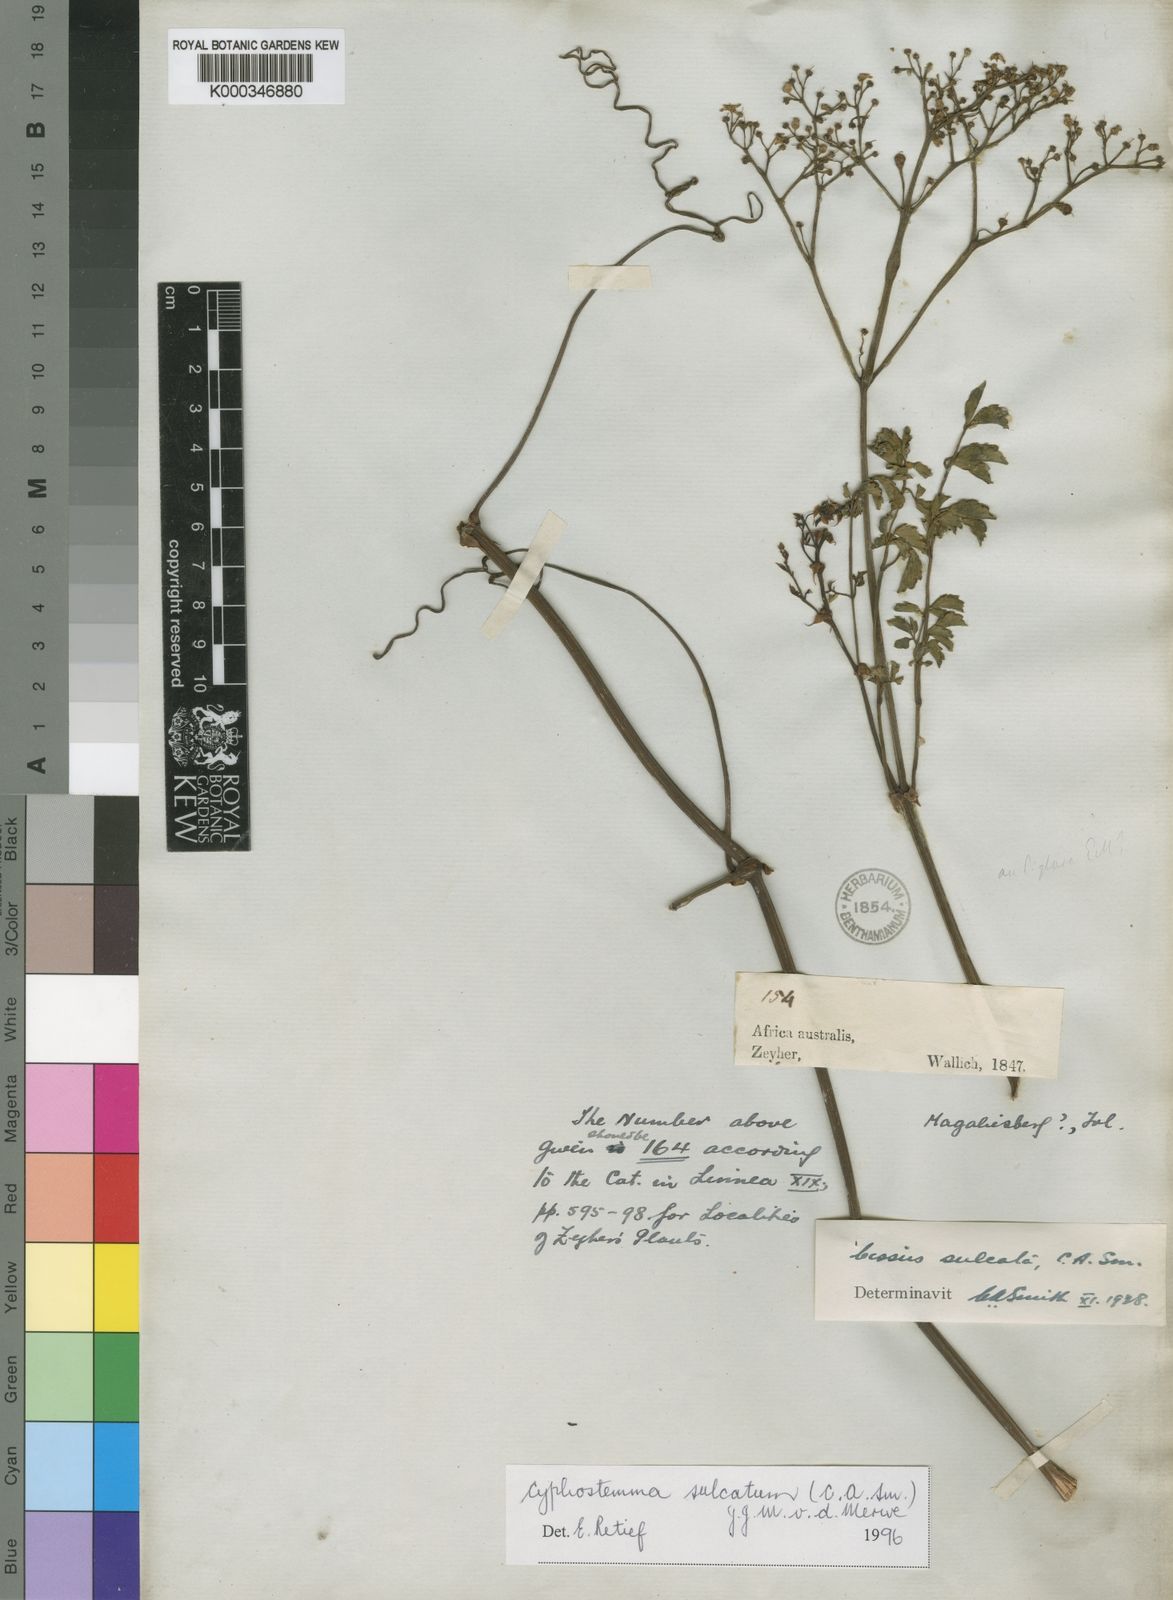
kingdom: Plantae
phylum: Tracheophyta
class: Magnoliopsida
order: Vitales
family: Vitaceae
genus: Cyphostemma
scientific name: Cyphostemma sulcatum
